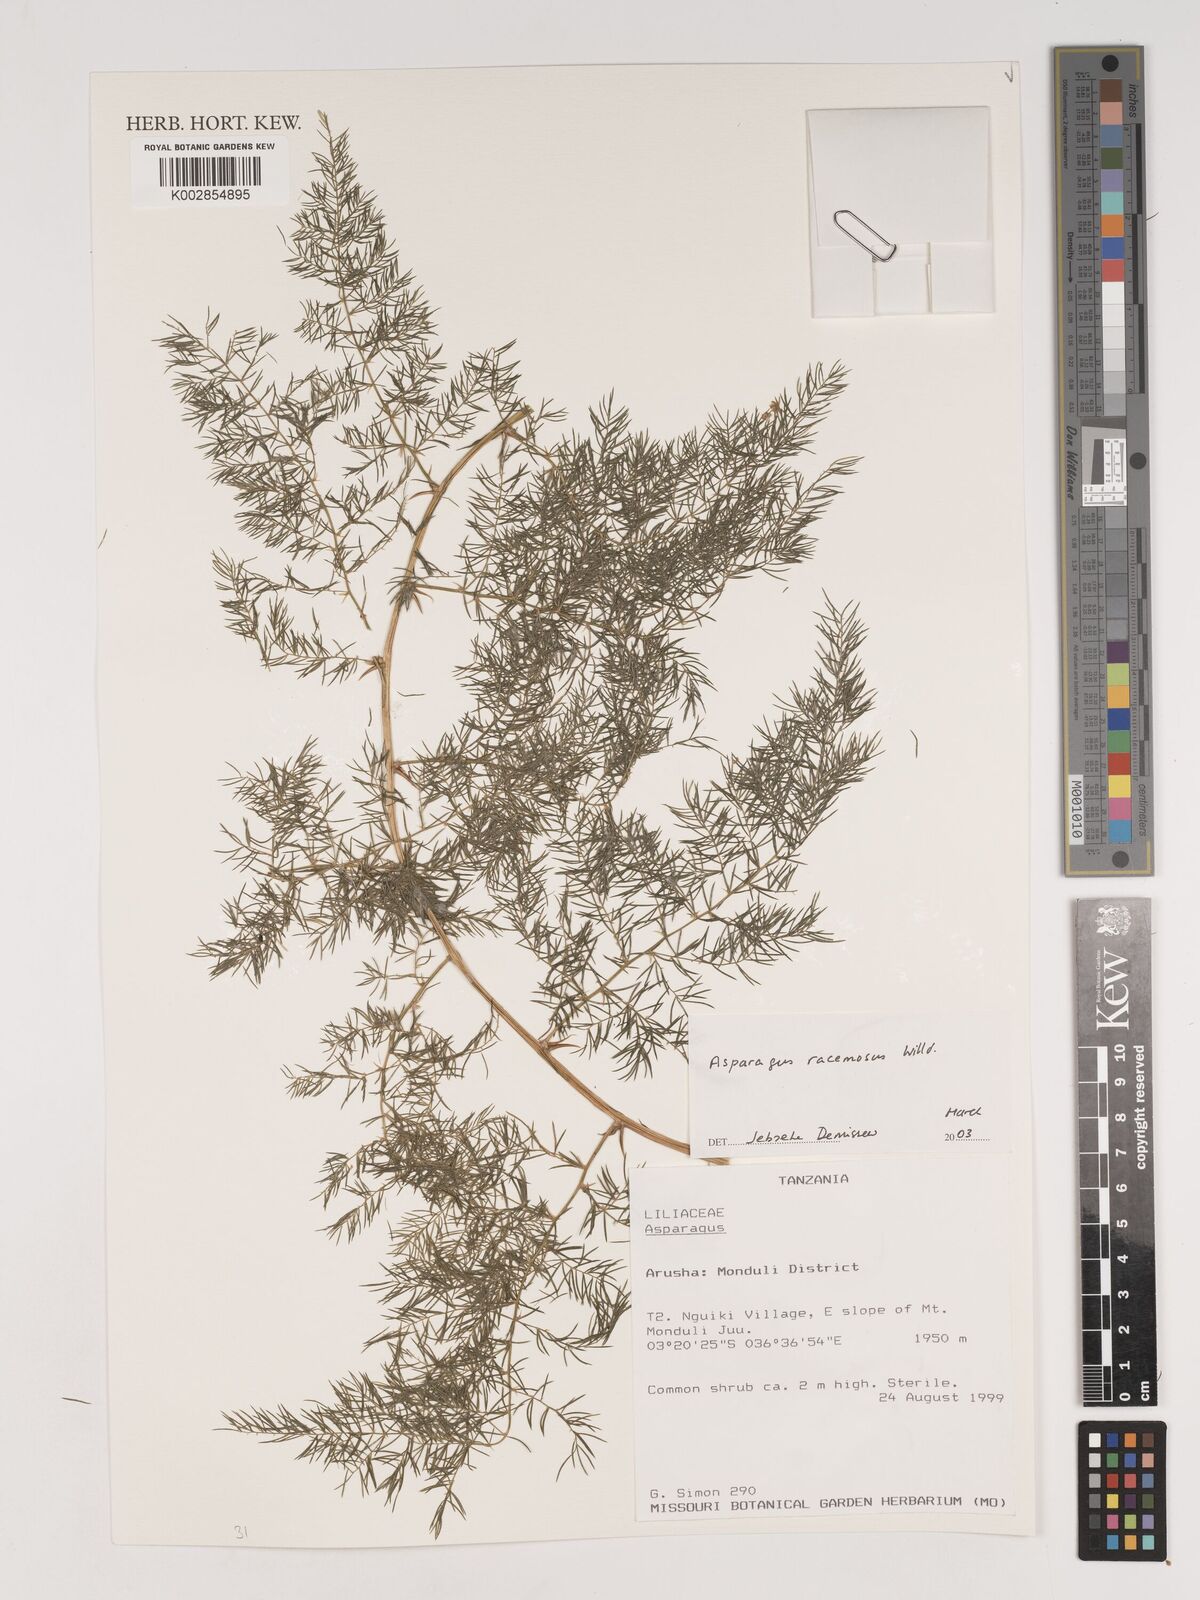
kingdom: Plantae
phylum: Tracheophyta
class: Liliopsida
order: Asparagales
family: Asparagaceae
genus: Asparagus
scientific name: Asparagus racemosus
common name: Asparagus-fern
